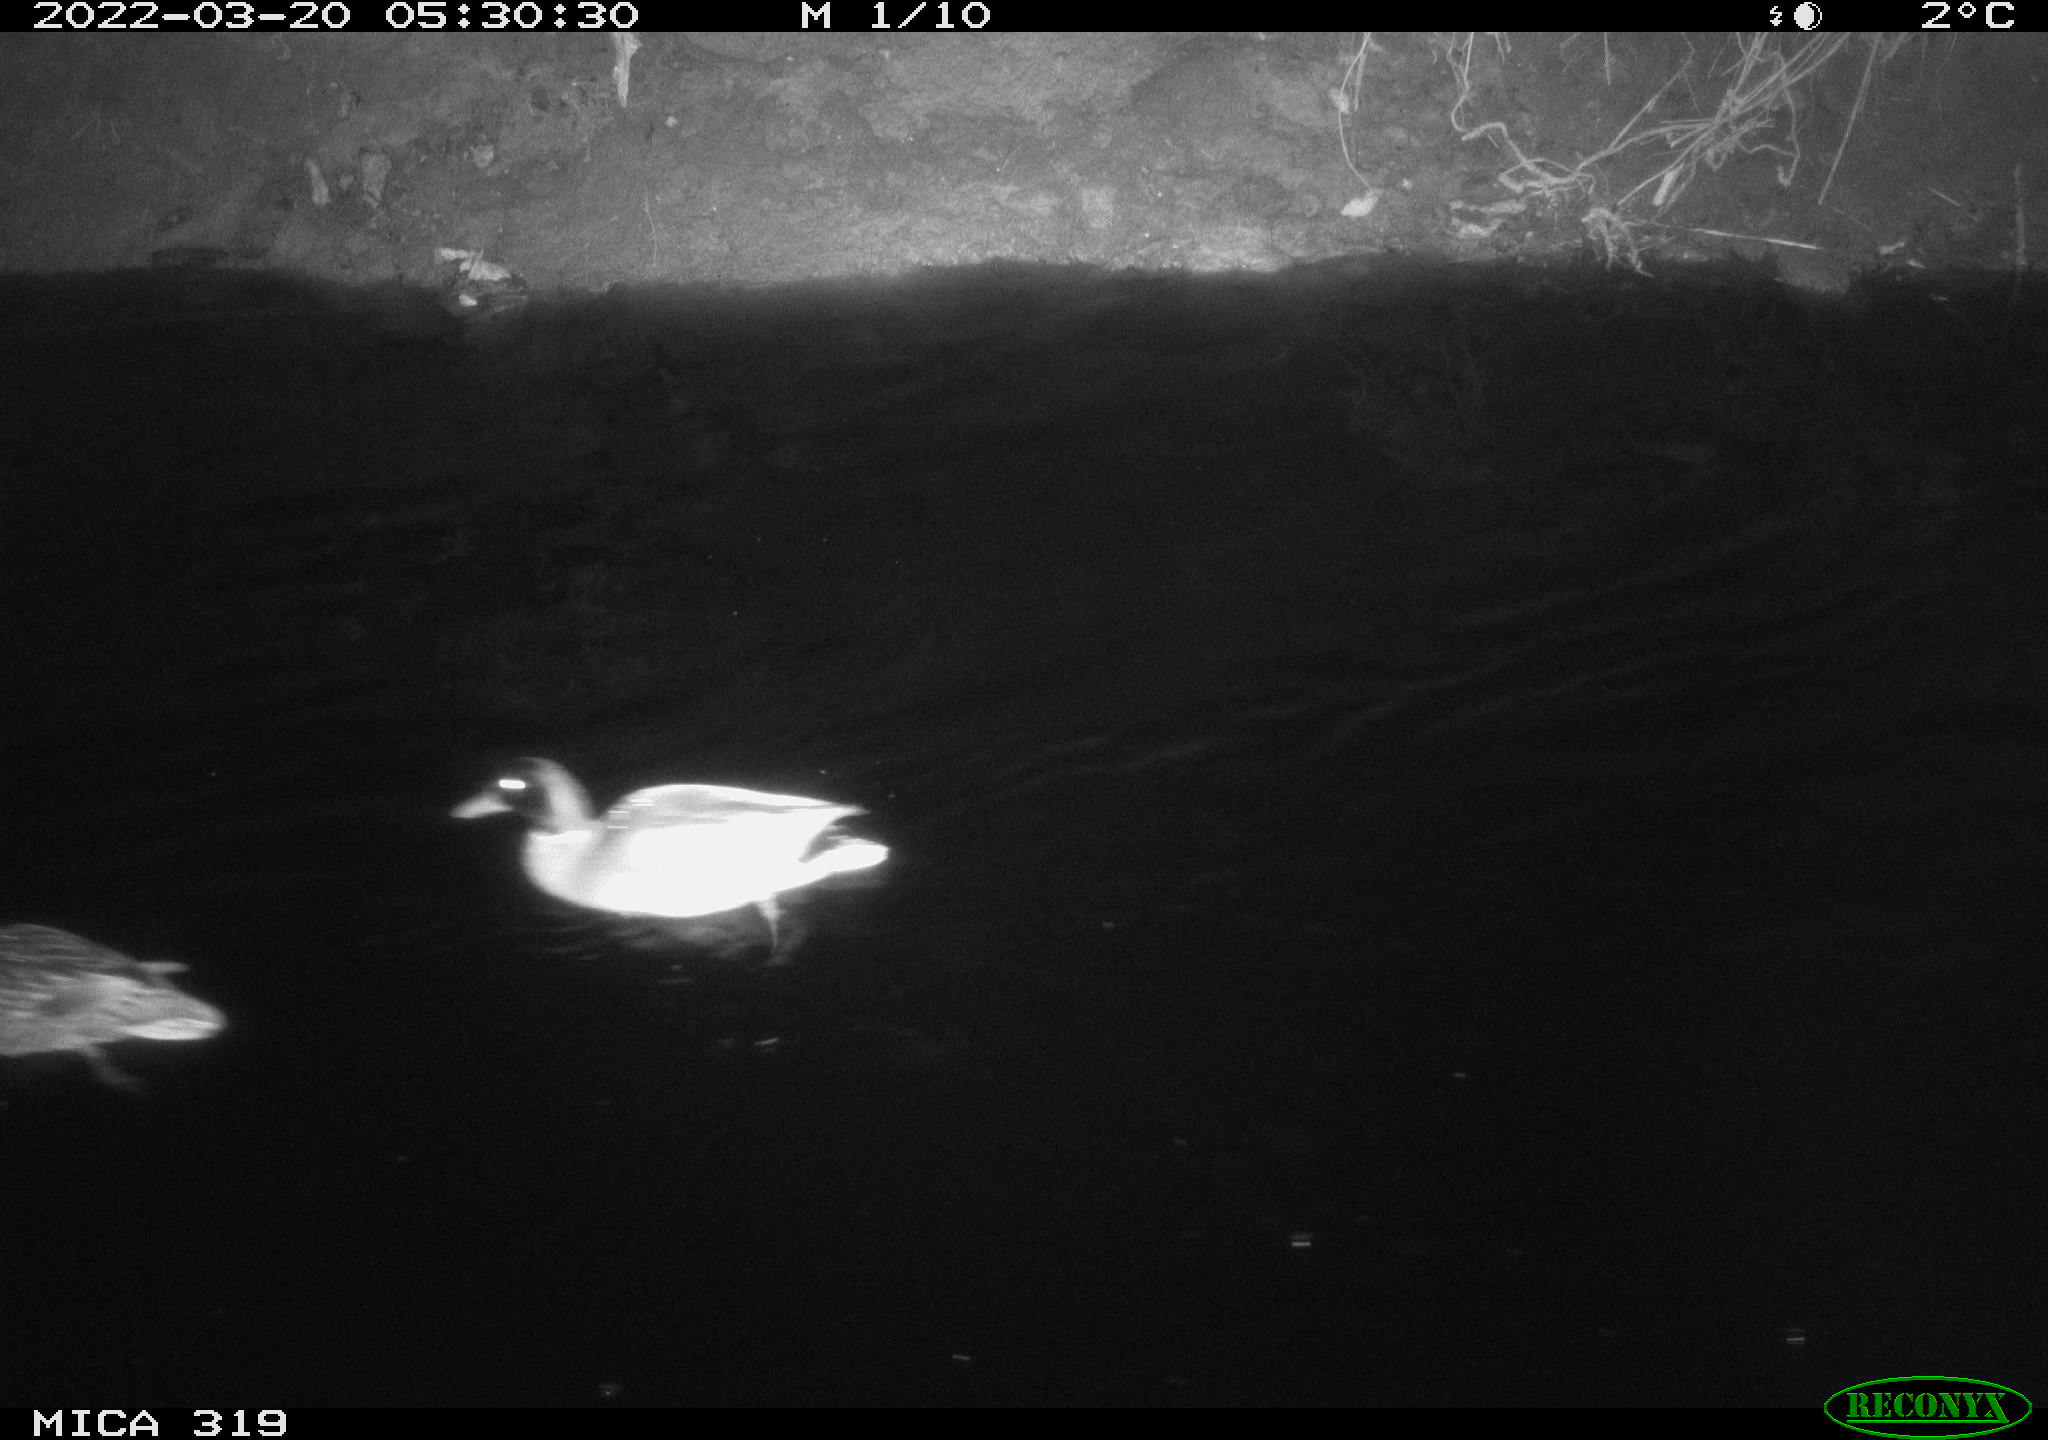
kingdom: Animalia
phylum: Chordata
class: Aves
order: Anseriformes
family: Anatidae
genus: Anas
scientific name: Anas platyrhynchos
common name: Mallard
